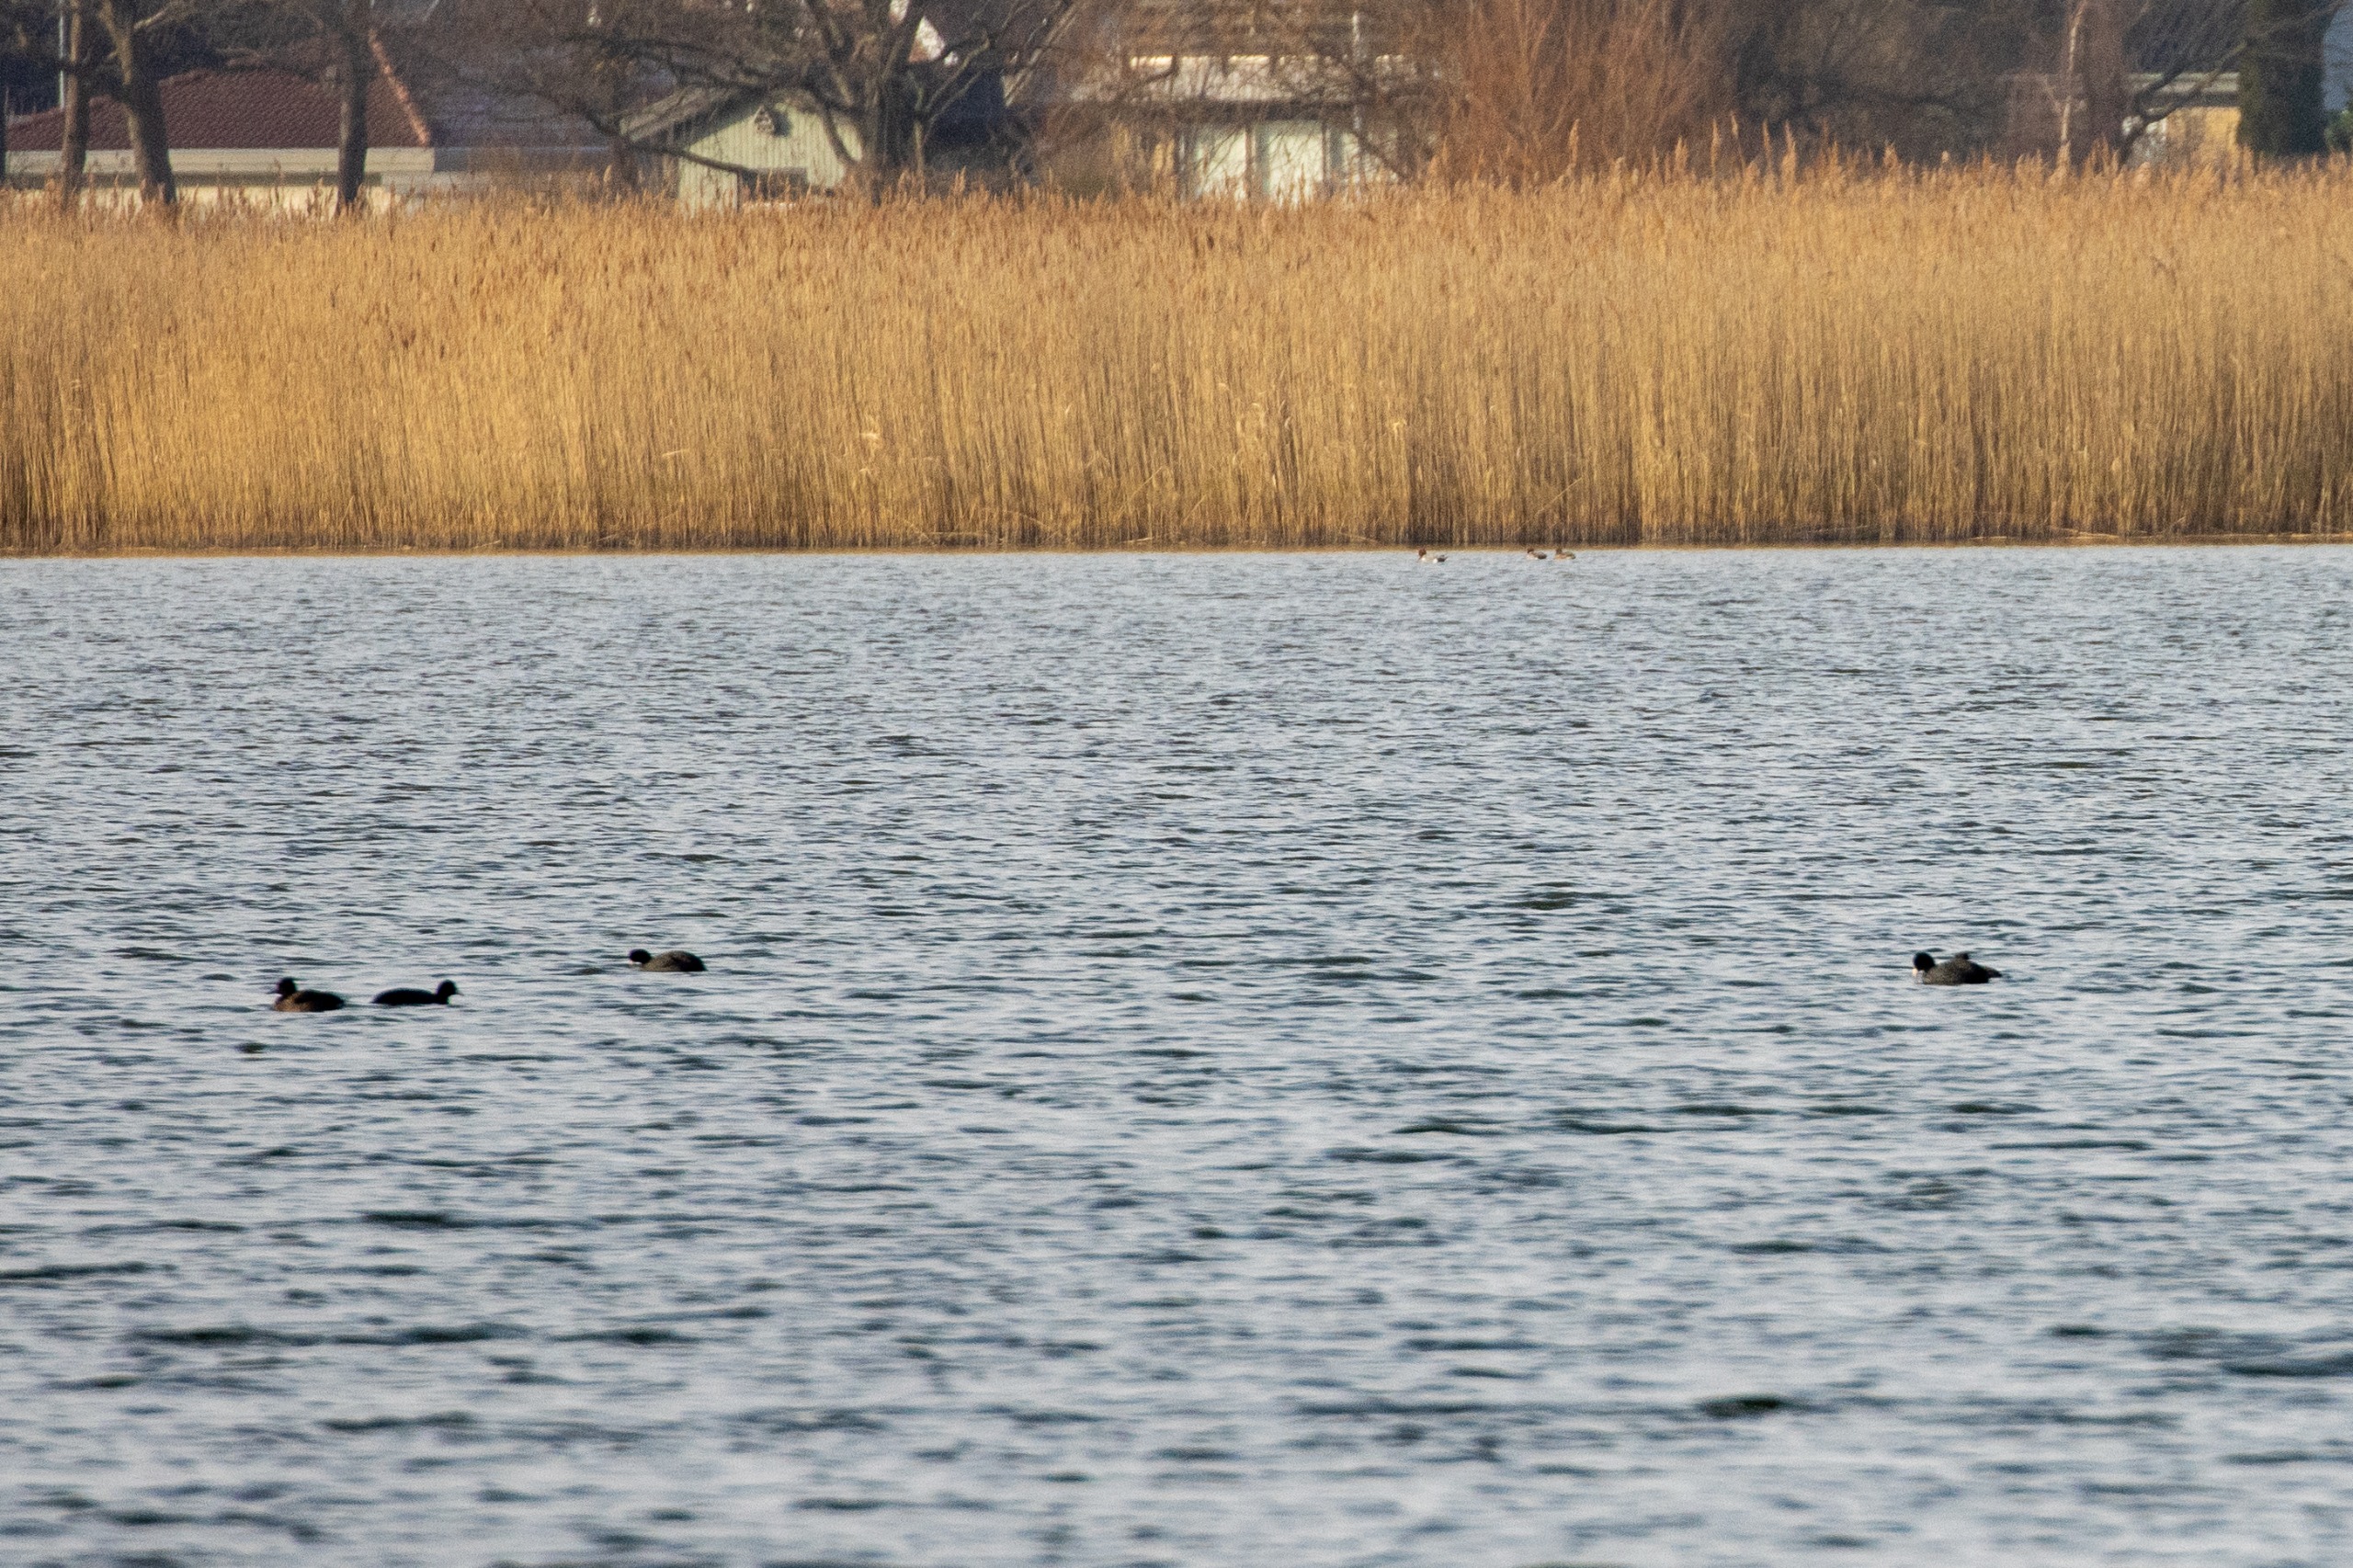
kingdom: Animalia
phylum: Chordata
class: Aves
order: Gruiformes
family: Rallidae
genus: Fulica
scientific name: Fulica atra
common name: Blishøne
